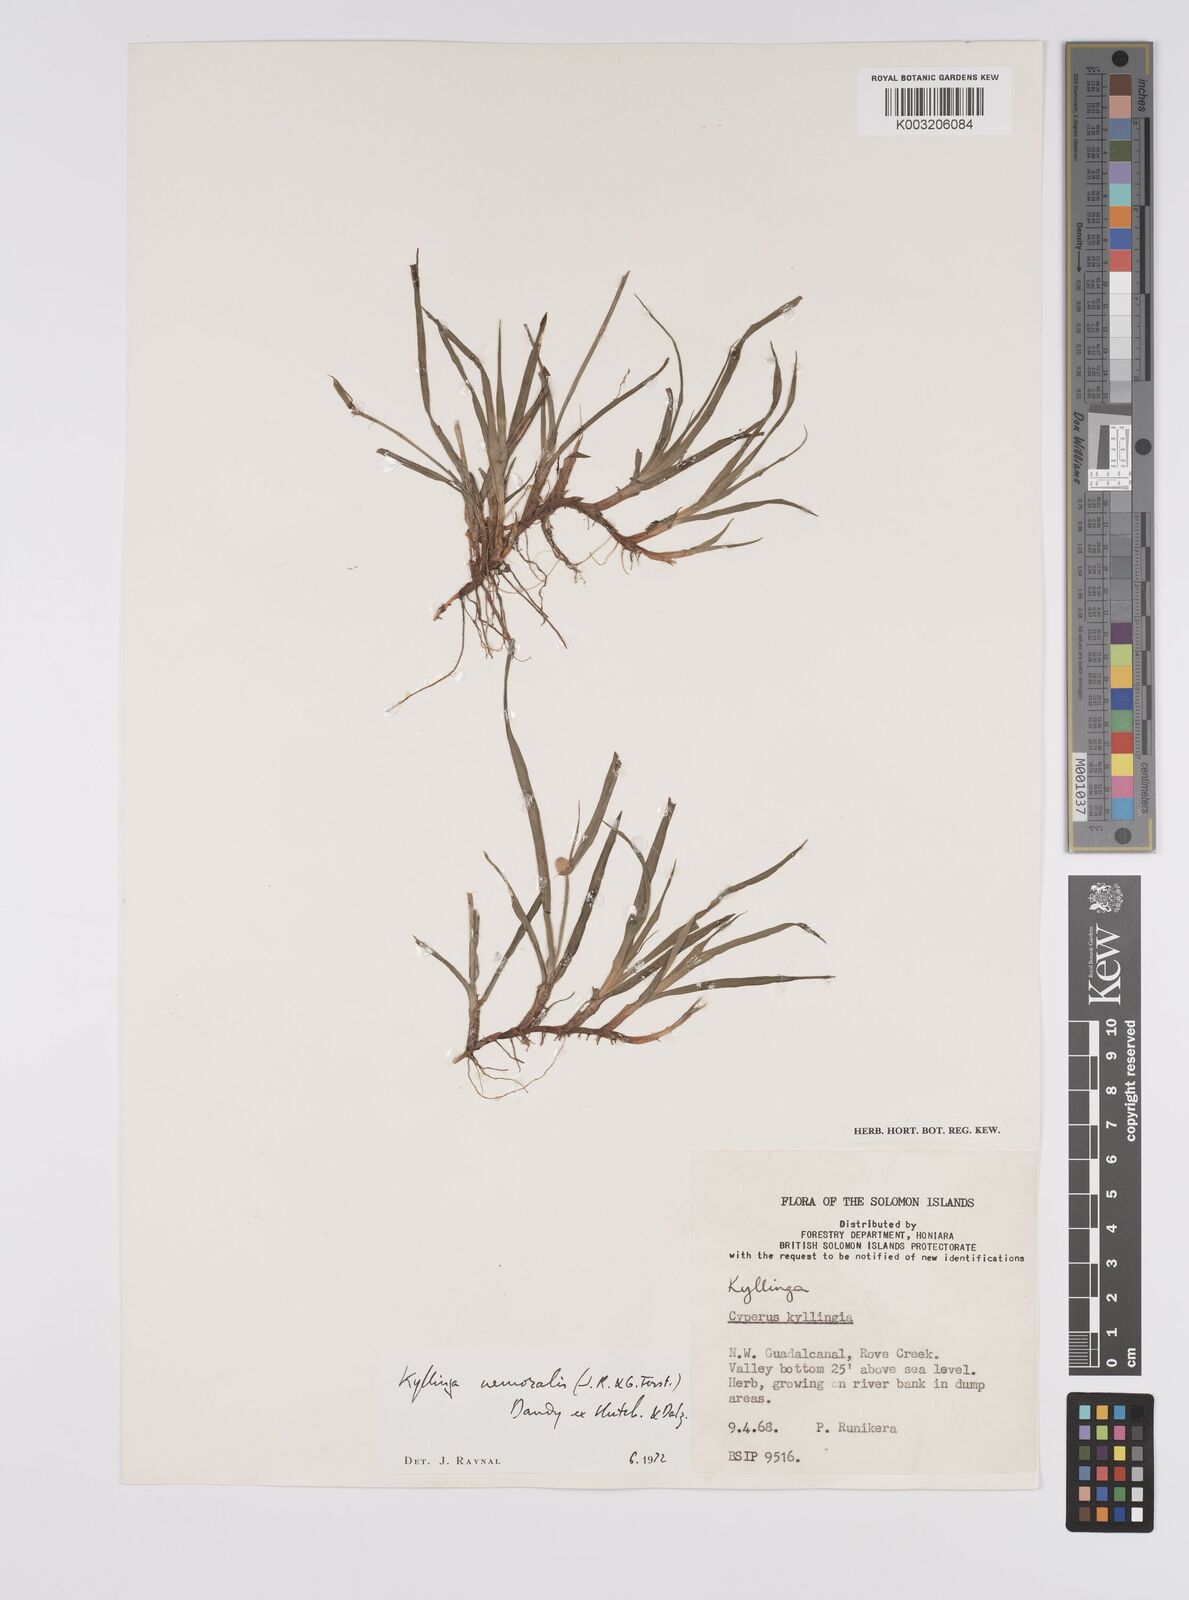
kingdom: Plantae
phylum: Tracheophyta
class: Liliopsida
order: Poales
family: Cyperaceae
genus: Cyperus
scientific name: Cyperus nemoralis
